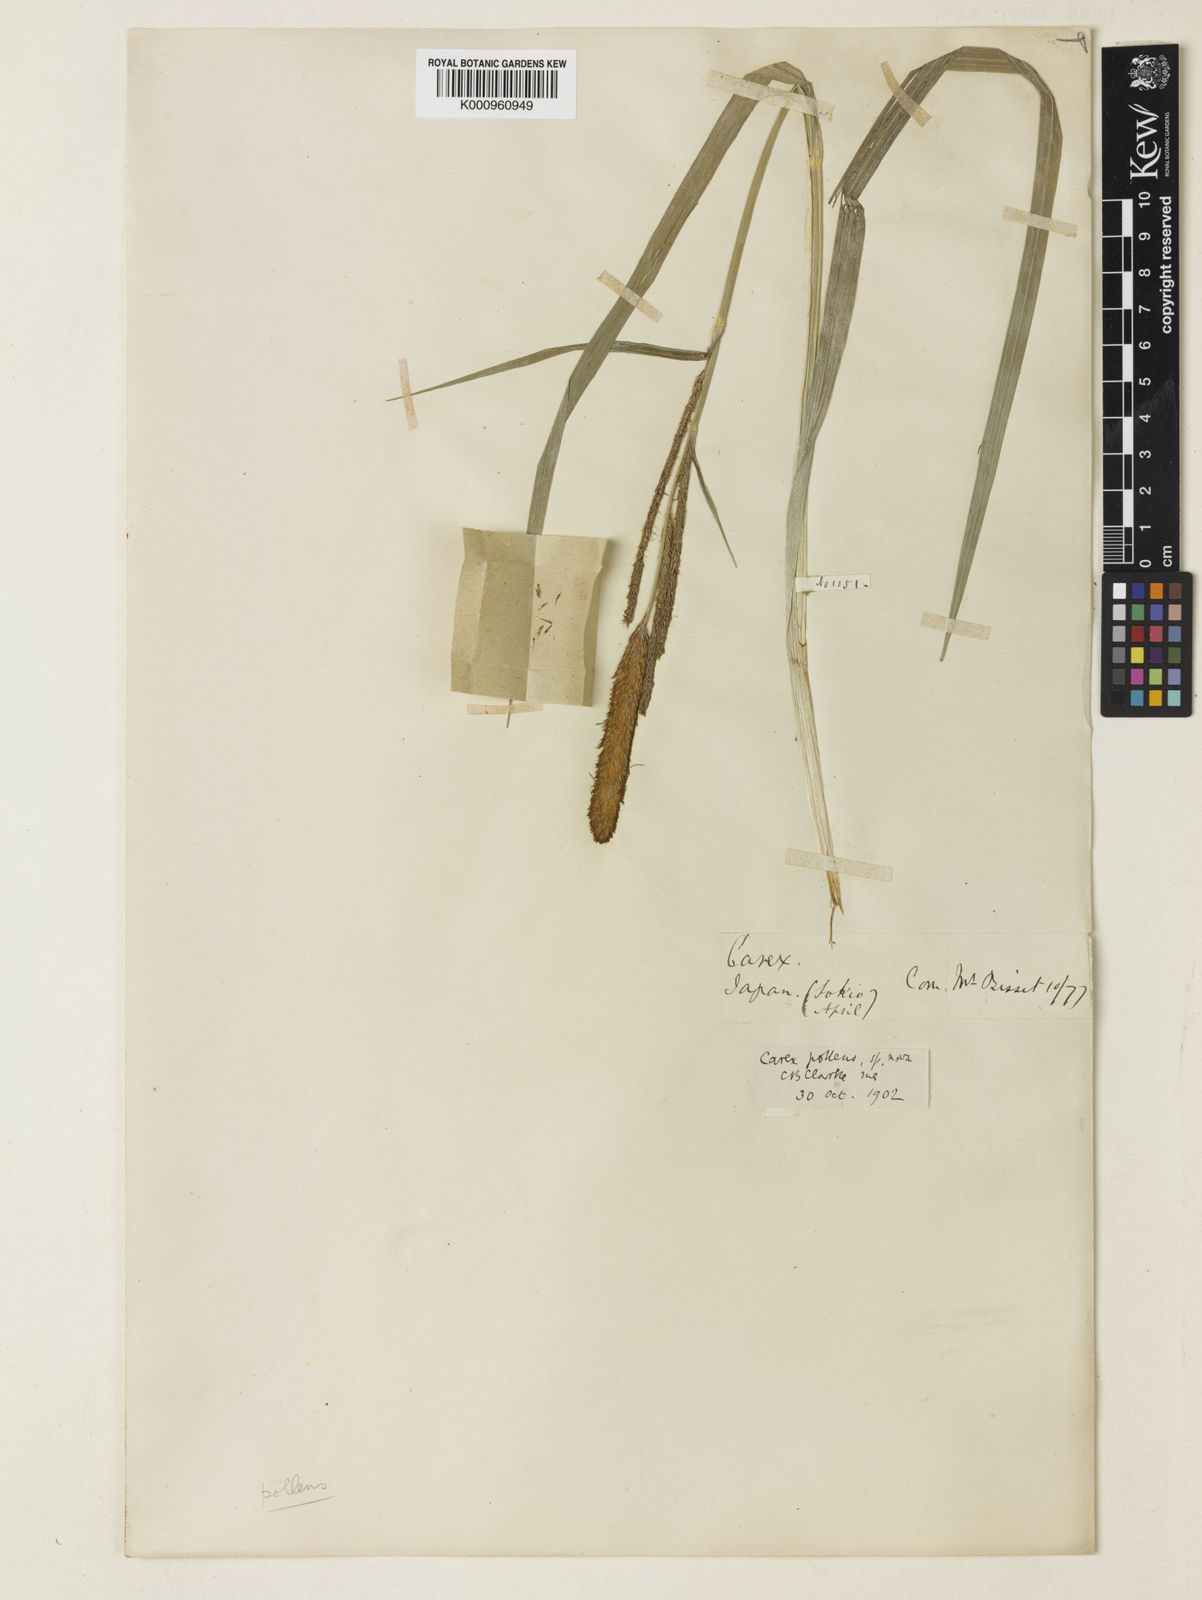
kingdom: Plantae
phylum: Tracheophyta
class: Liliopsida
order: Poales
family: Cyperaceae
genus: Carex
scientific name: Carex dispalata
